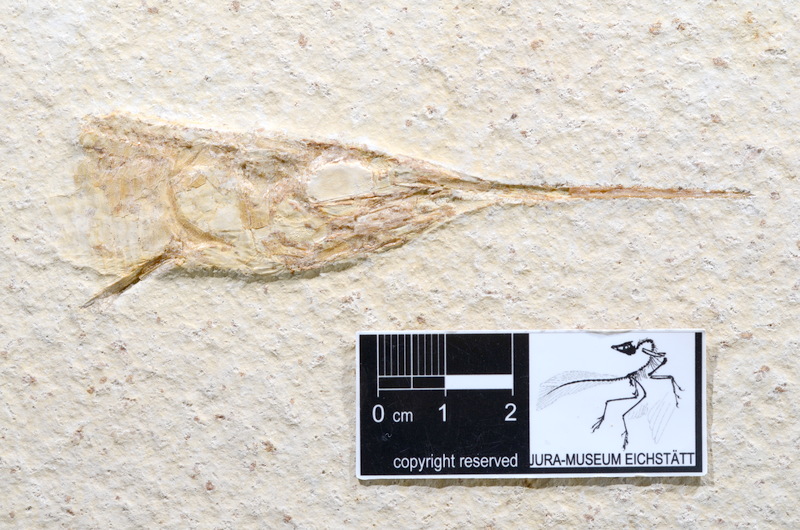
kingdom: Animalia
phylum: Chordata
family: Aspidorhynchidae
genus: Aspidorhynchus
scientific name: Aspidorhynchus acutirostris
